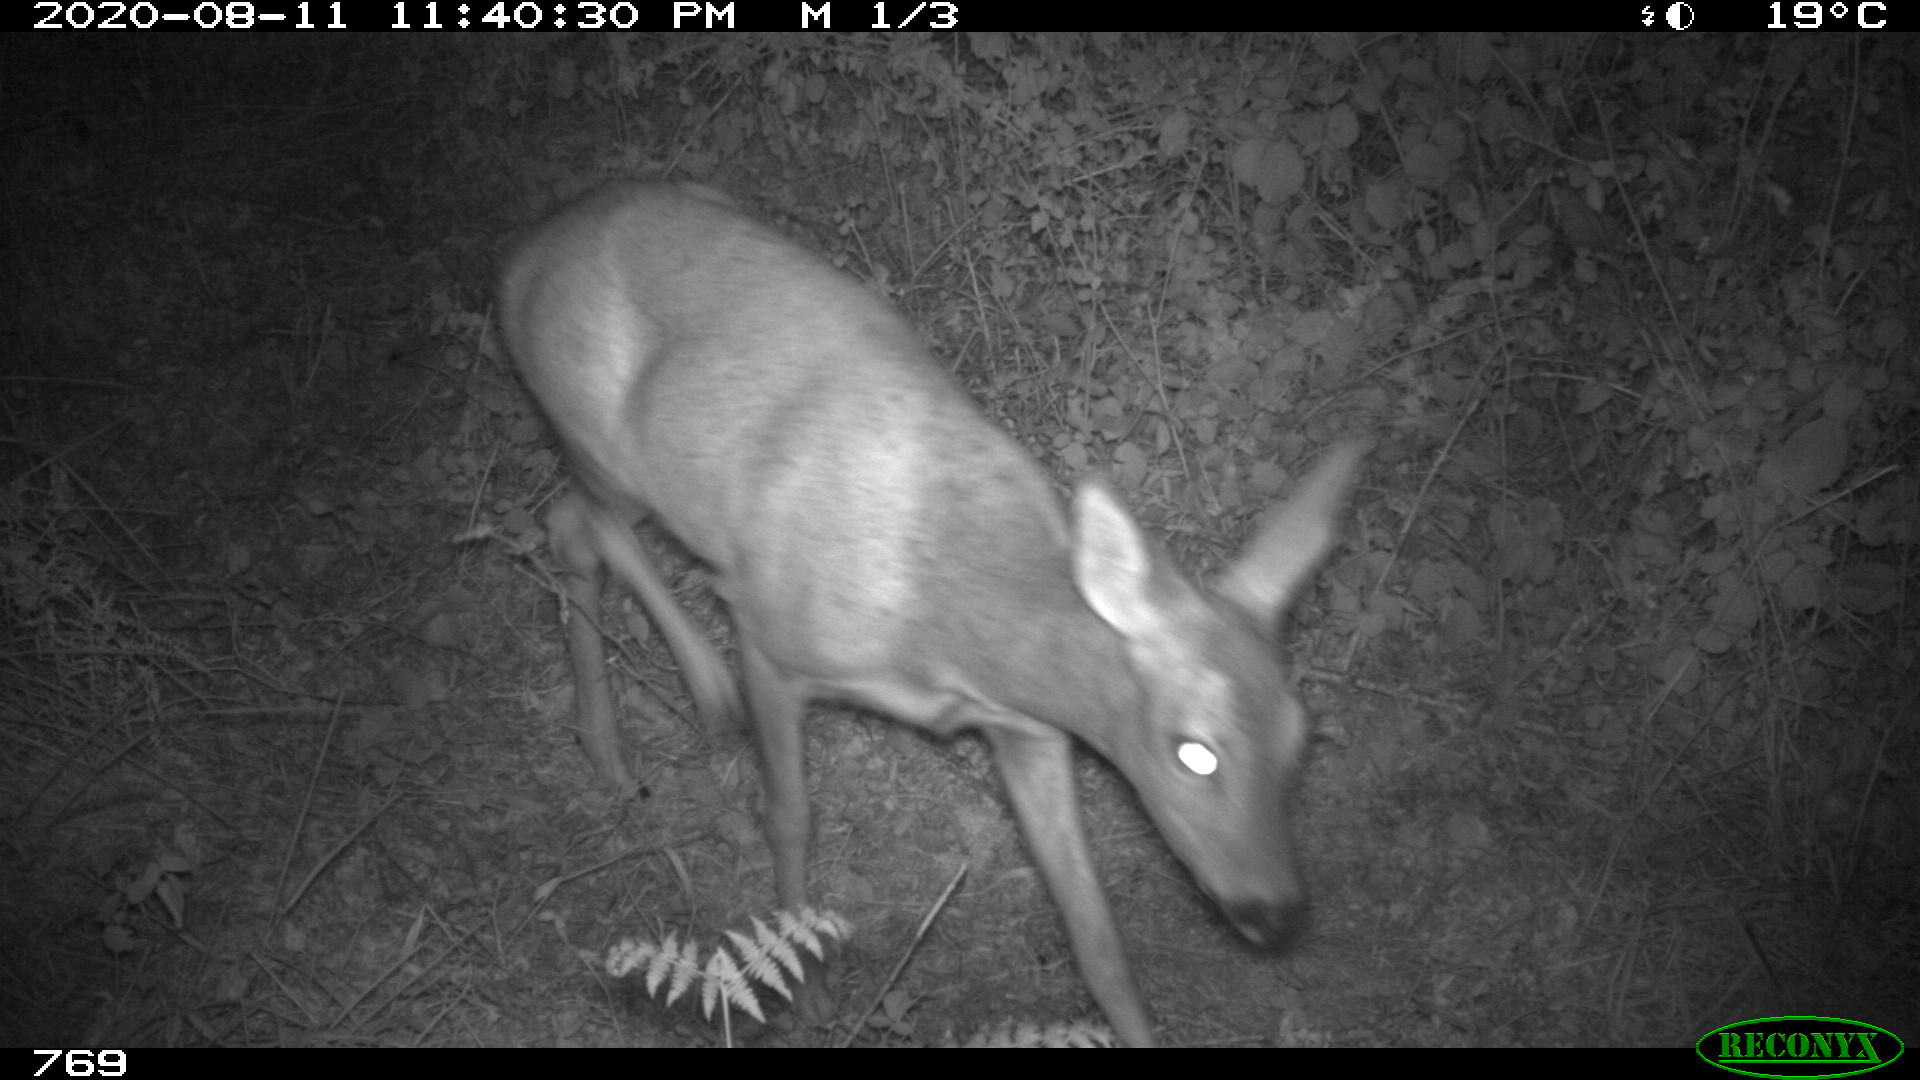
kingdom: Animalia
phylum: Chordata
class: Mammalia
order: Artiodactyla
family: Cervidae
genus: Capreolus
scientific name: Capreolus capreolus
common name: Western roe deer
